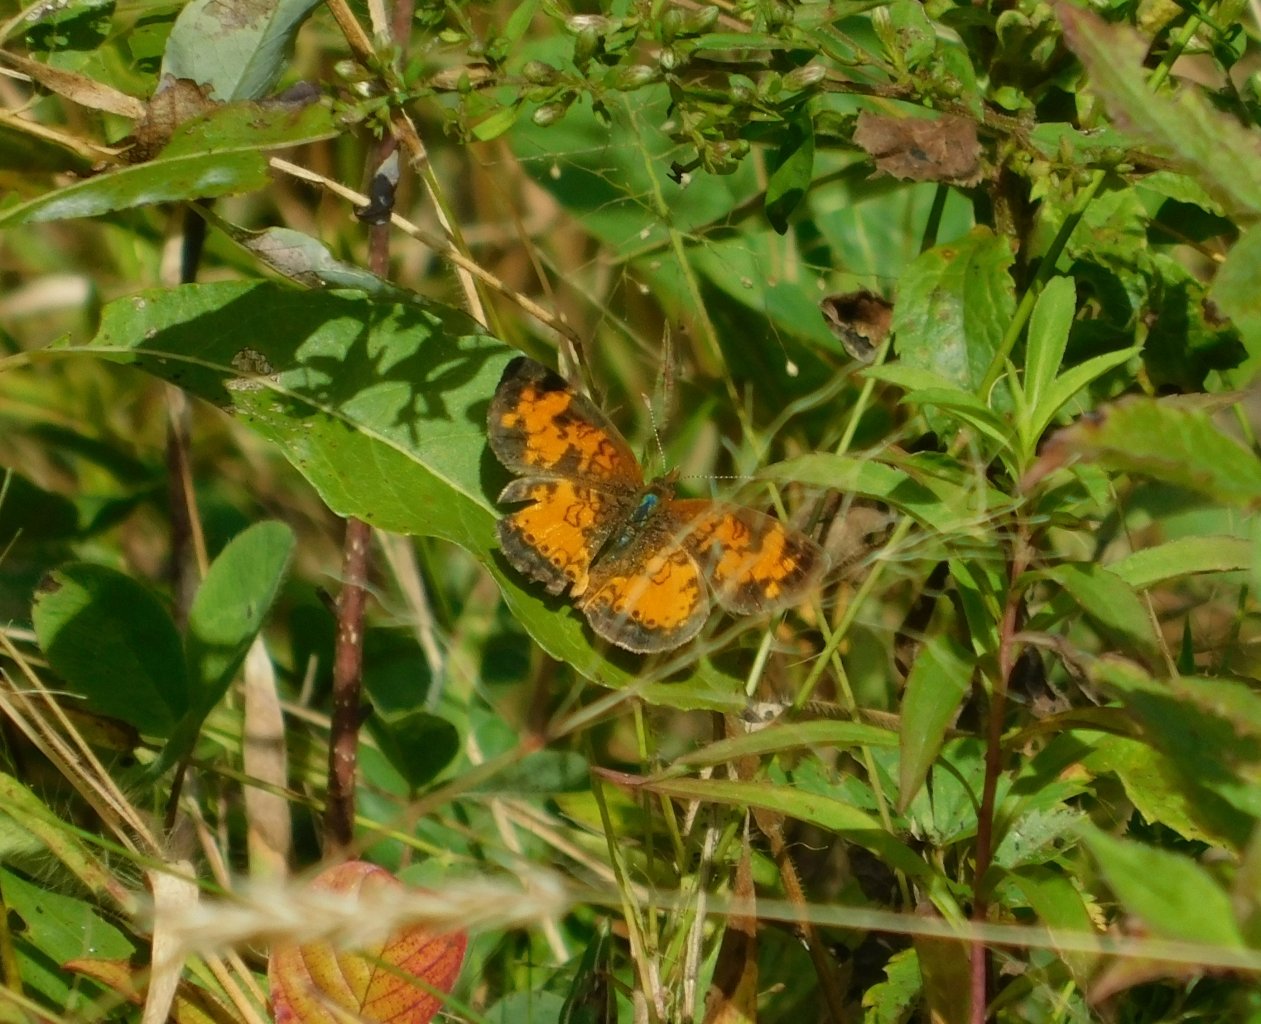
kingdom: Animalia
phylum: Arthropoda
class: Insecta
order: Lepidoptera
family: Nymphalidae
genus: Phyciodes
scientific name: Phyciodes tharos
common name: Northern Crescent
